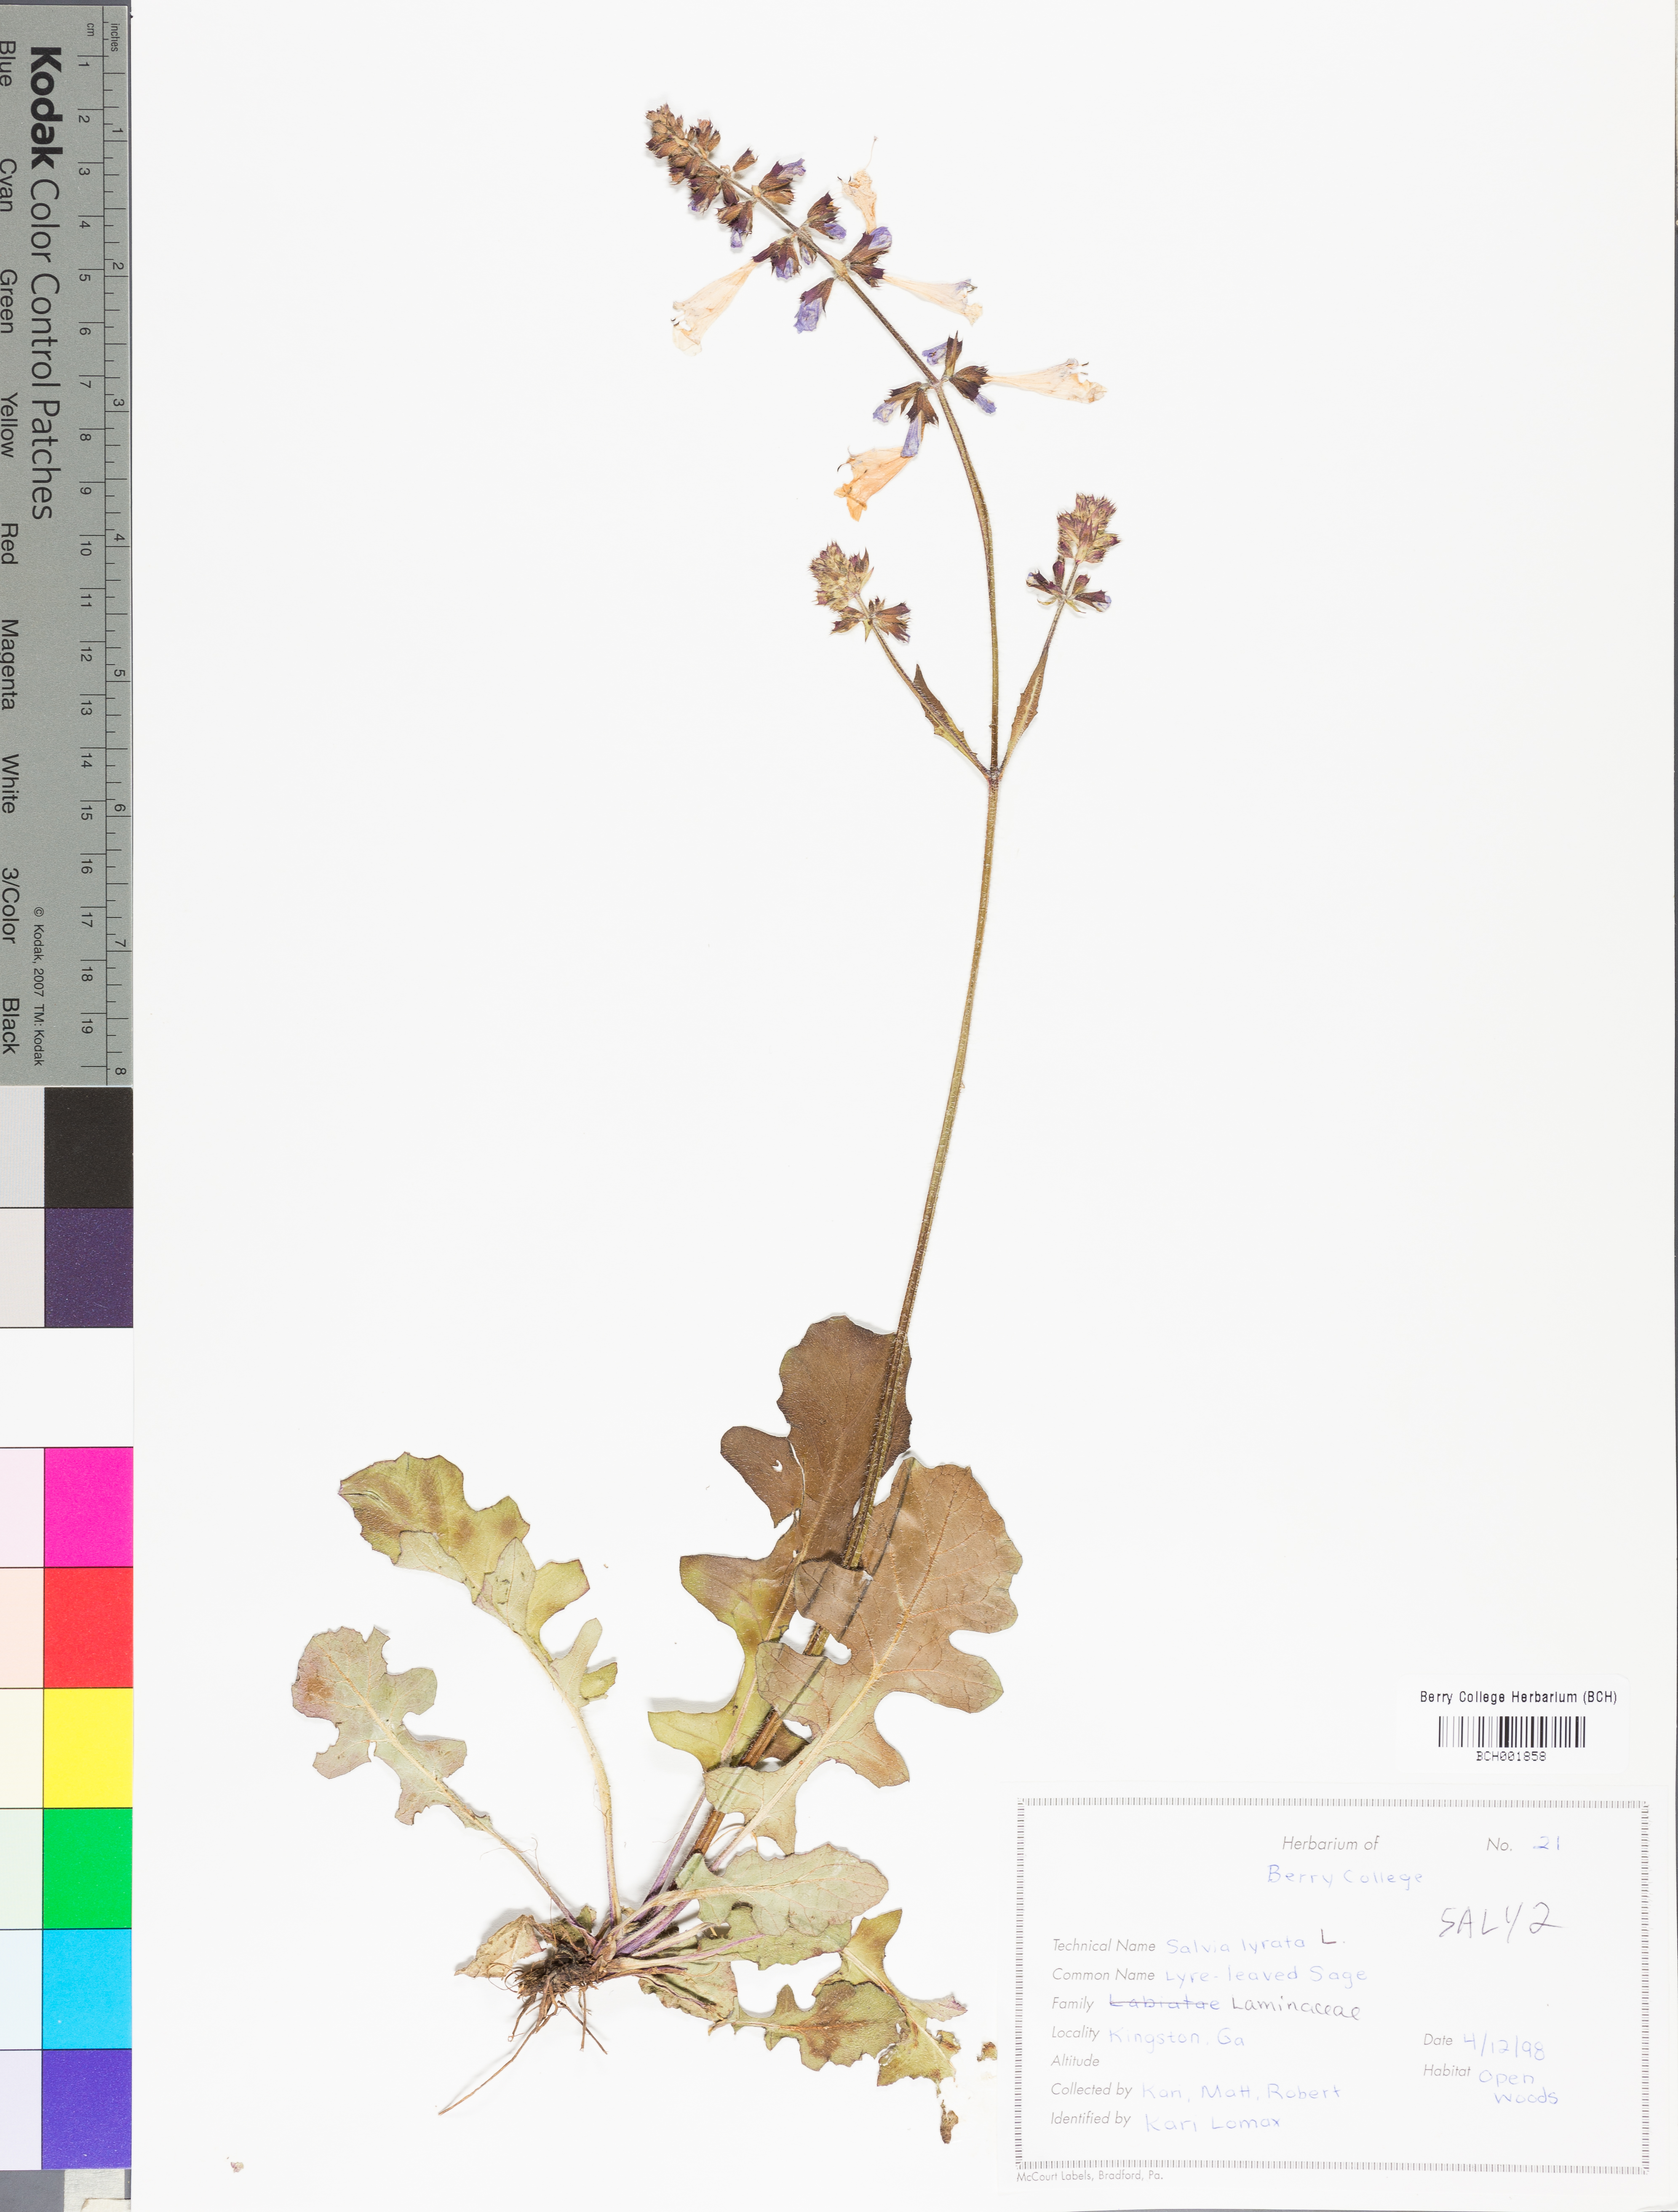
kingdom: Plantae
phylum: Tracheophyta
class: Magnoliopsida
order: Lamiales
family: Lamiaceae
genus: Salvia
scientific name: Salvia lyrata
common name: Cancerweed
